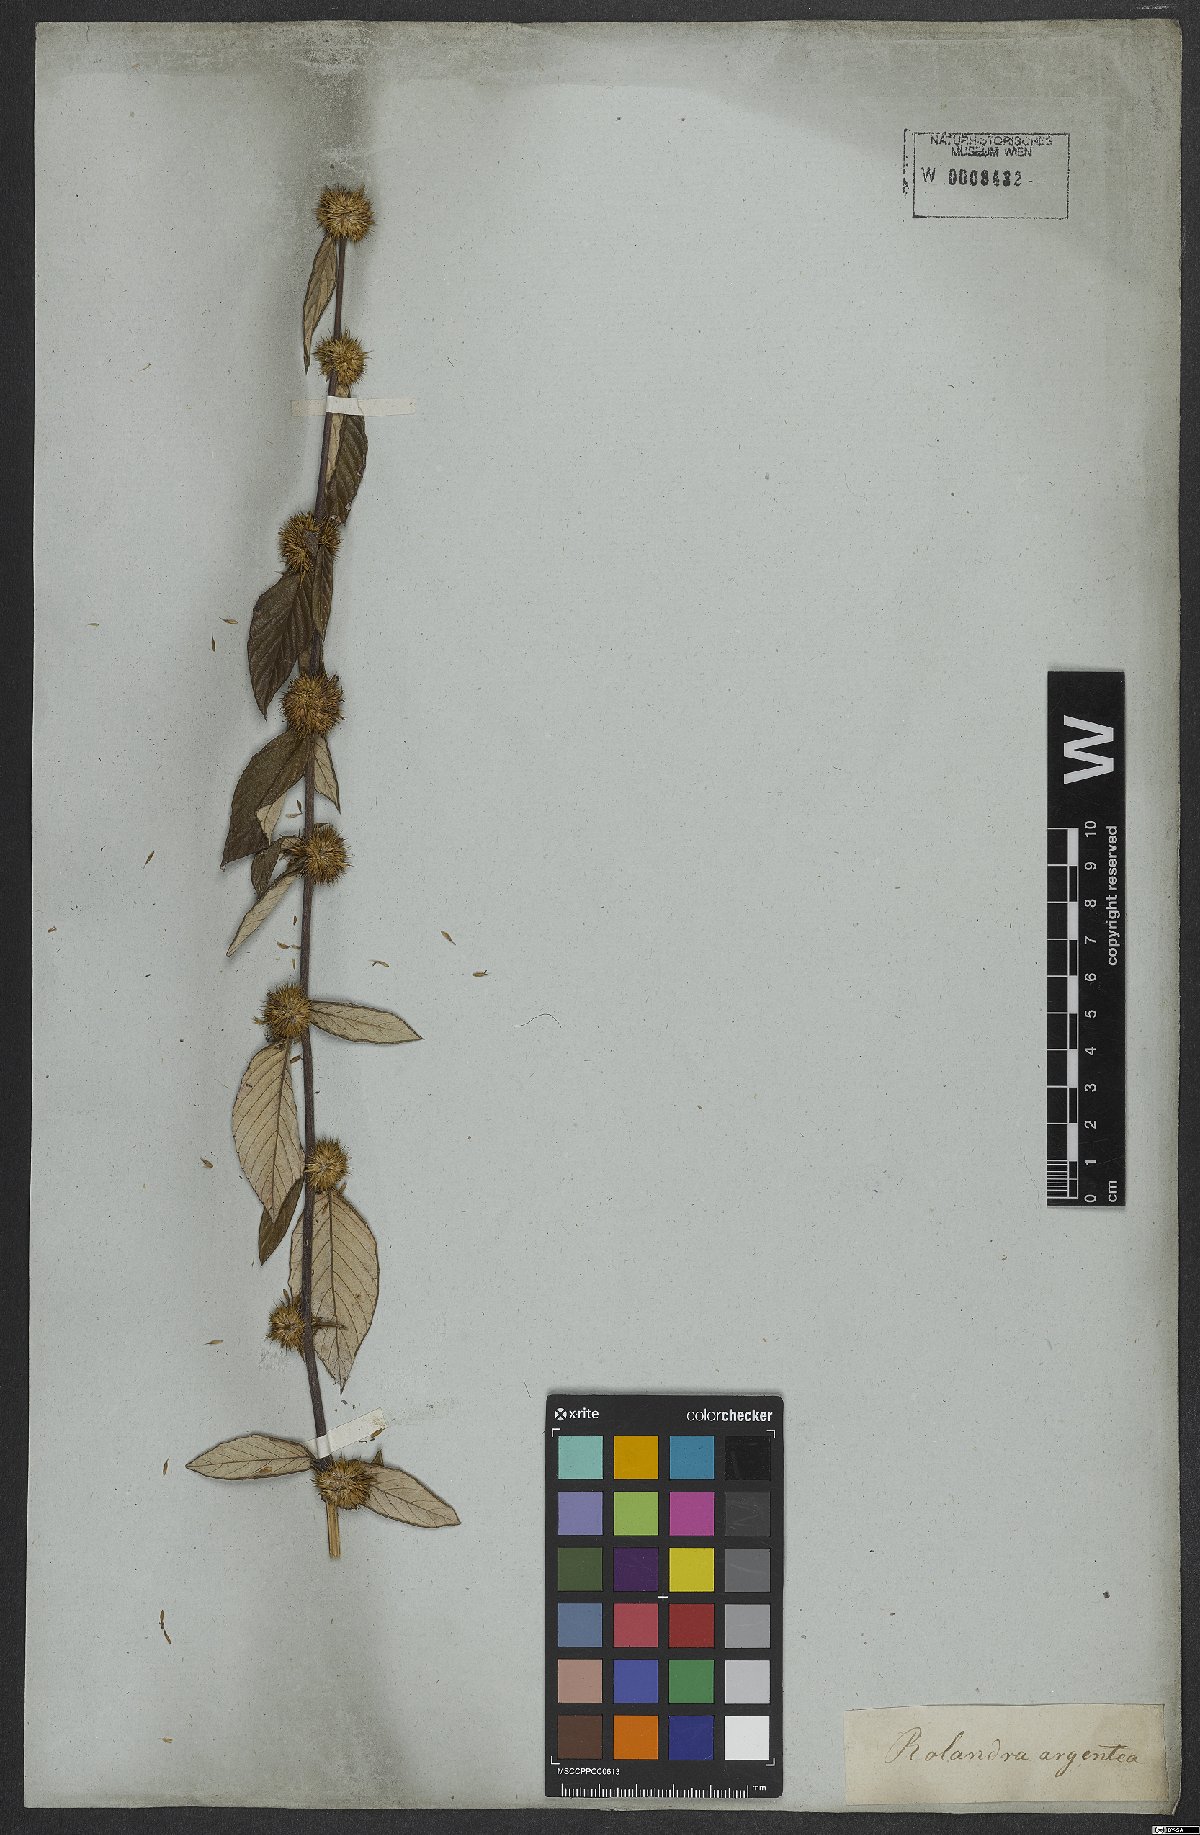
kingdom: Plantae
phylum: Tracheophyta
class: Magnoliopsida
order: Asterales
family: Asteraceae
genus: Rolandra
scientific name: Rolandra fruticosa
